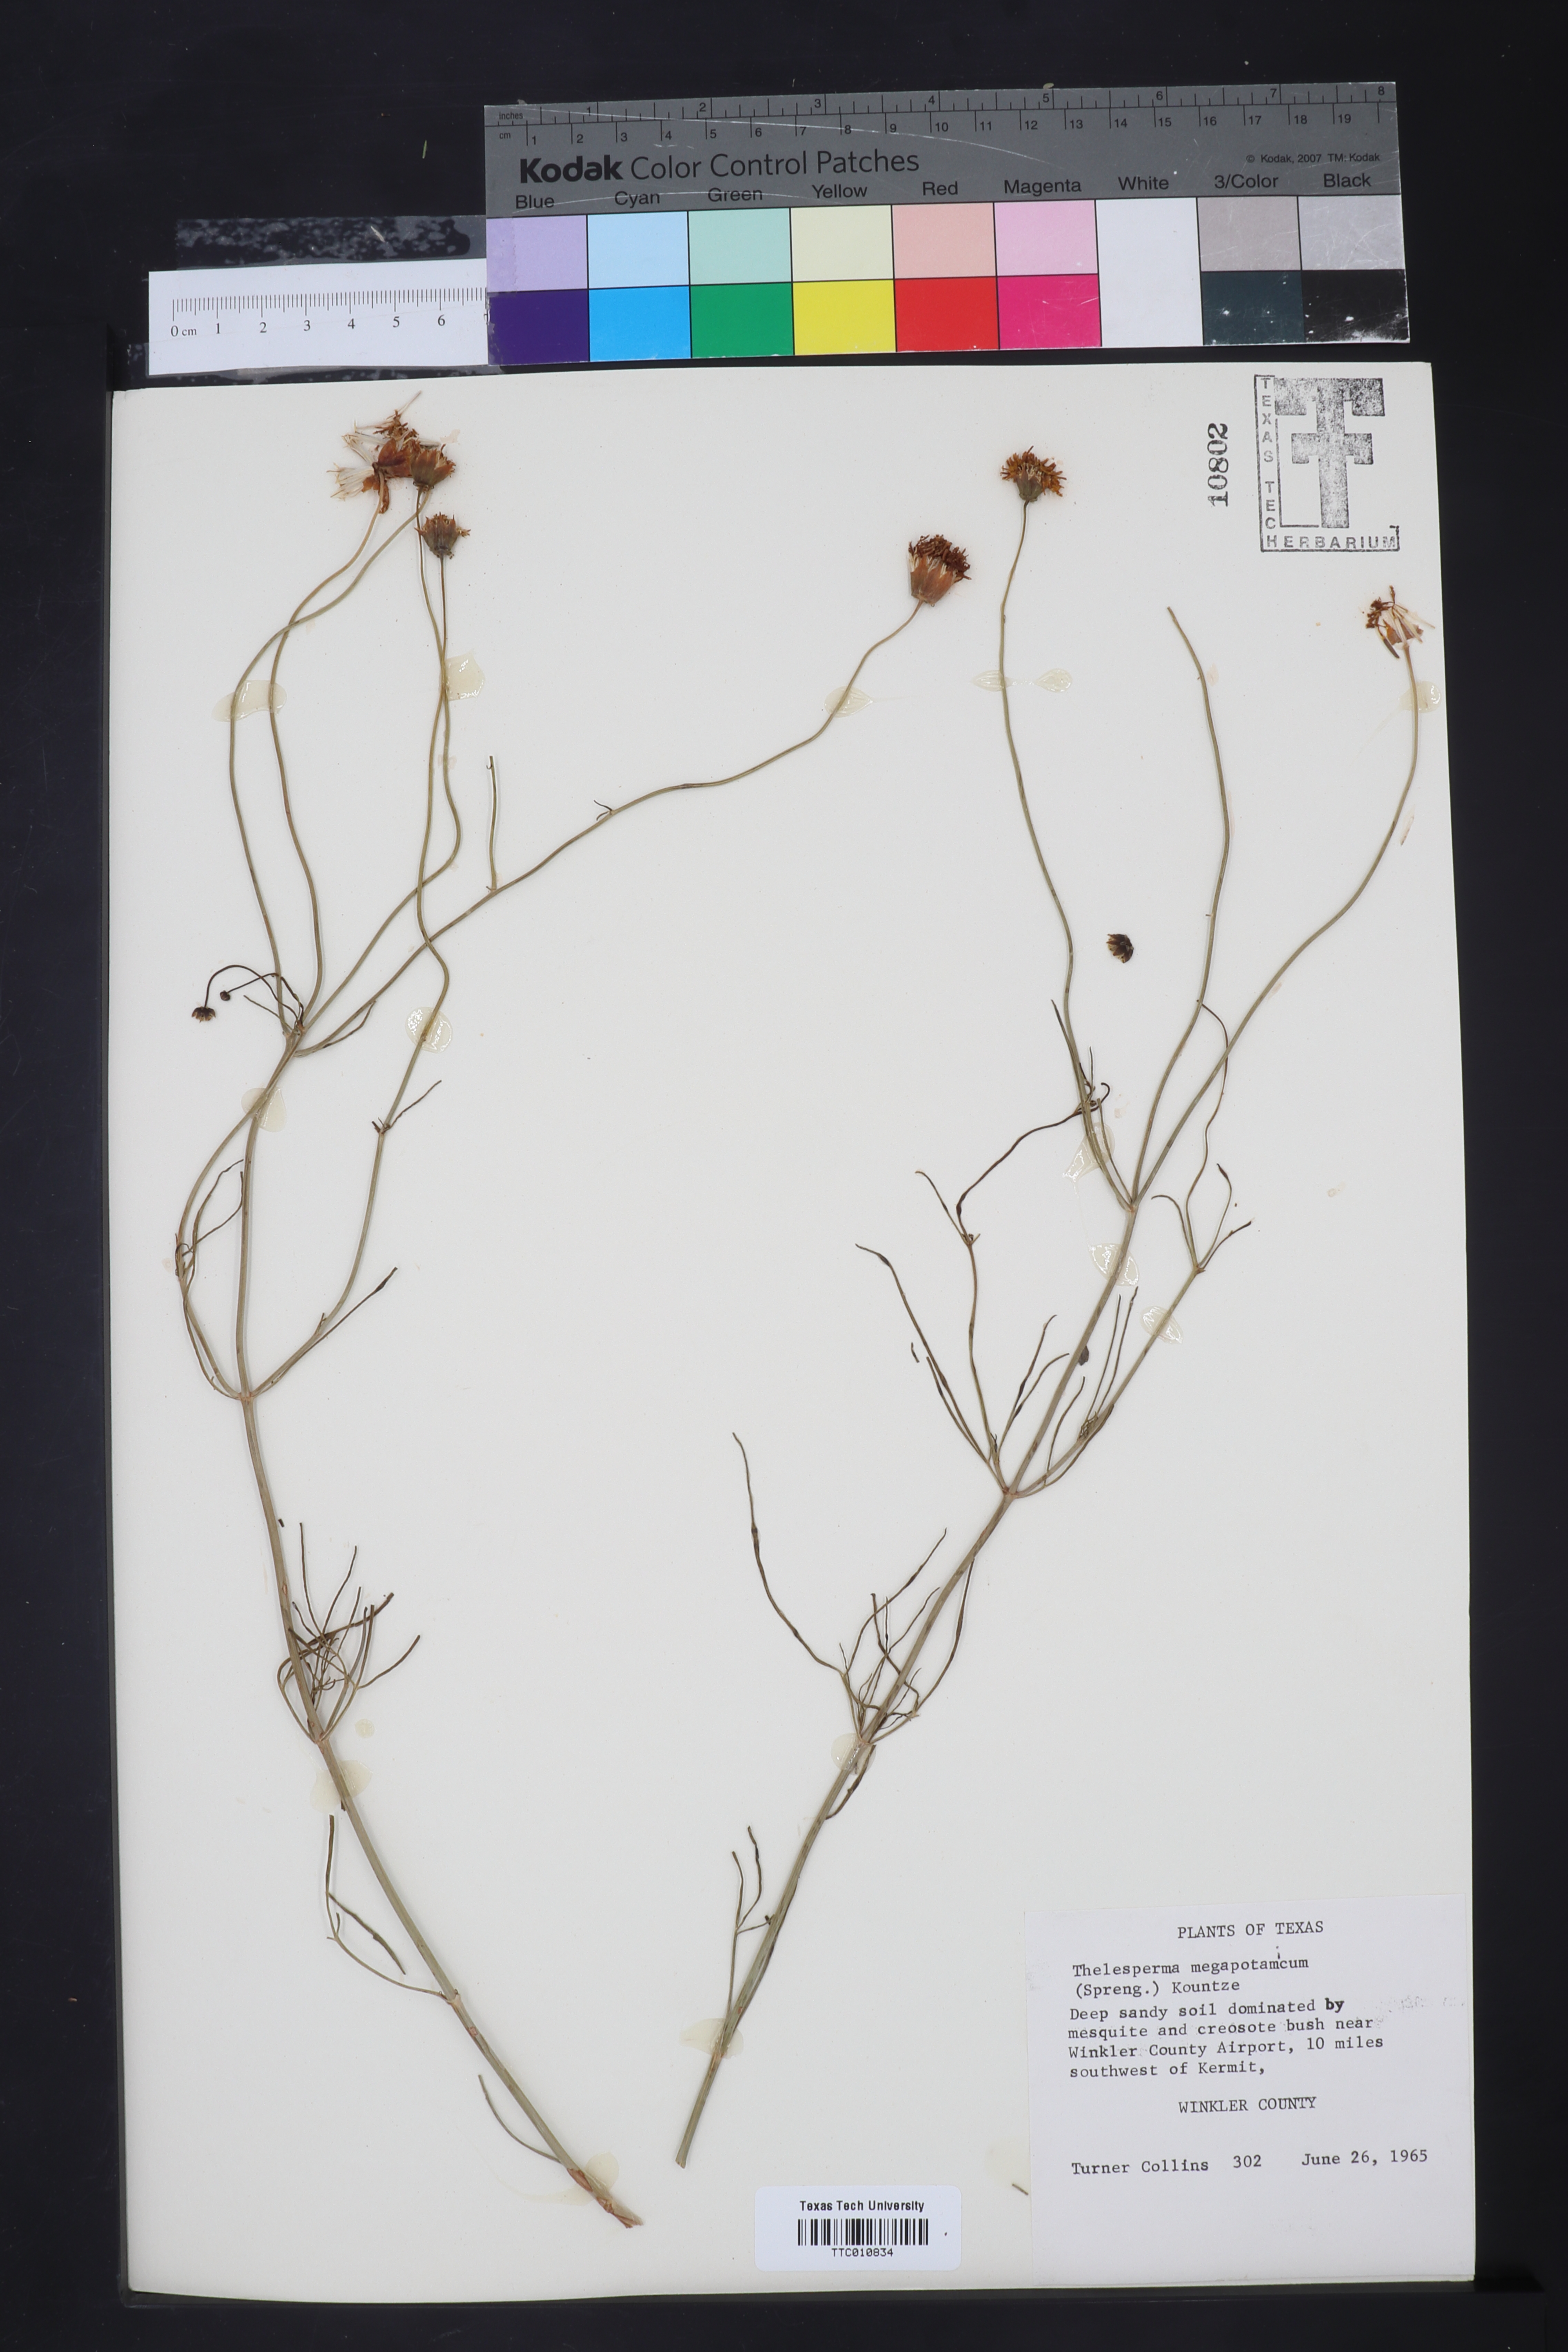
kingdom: Plantae
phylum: Tracheophyta
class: Magnoliopsida
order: Asterales
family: Asteraceae
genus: Thelesperma
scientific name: Thelesperma megapotamicum
